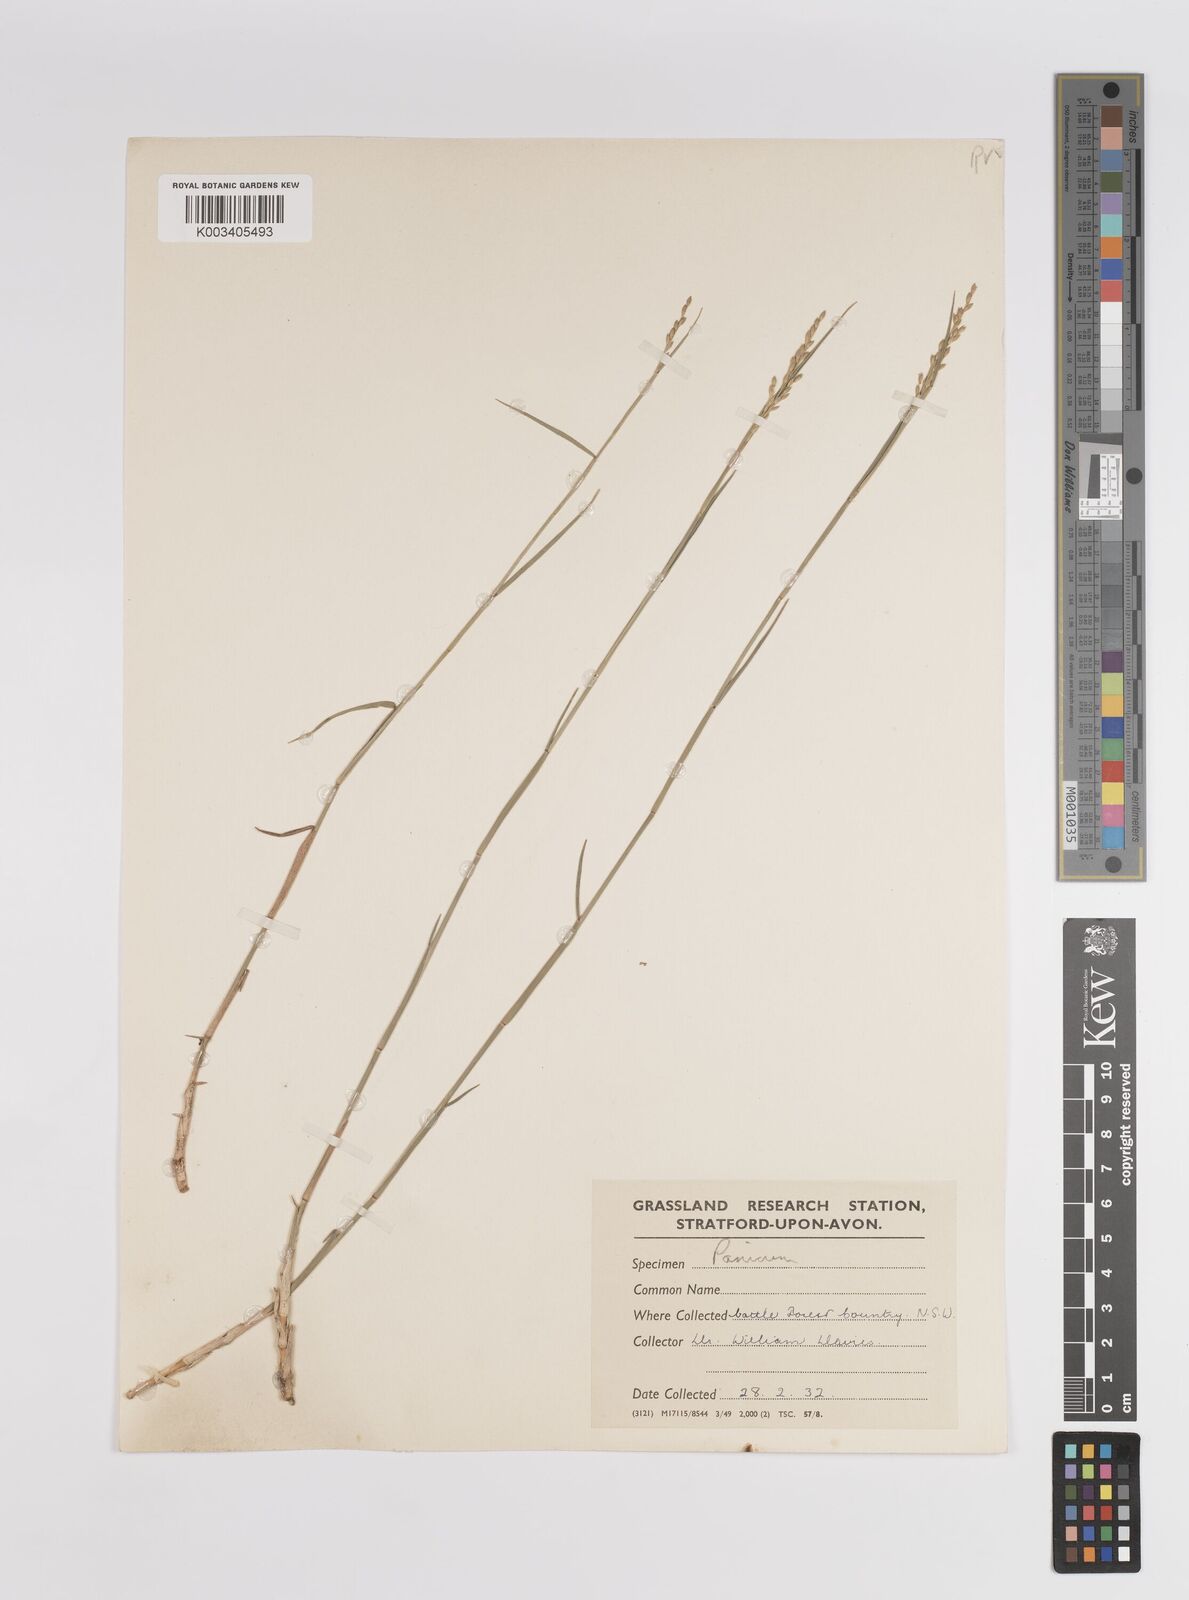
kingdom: Plantae
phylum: Tracheophyta
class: Liliopsida
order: Poales
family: Poaceae
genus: Panicum
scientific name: Panicum
